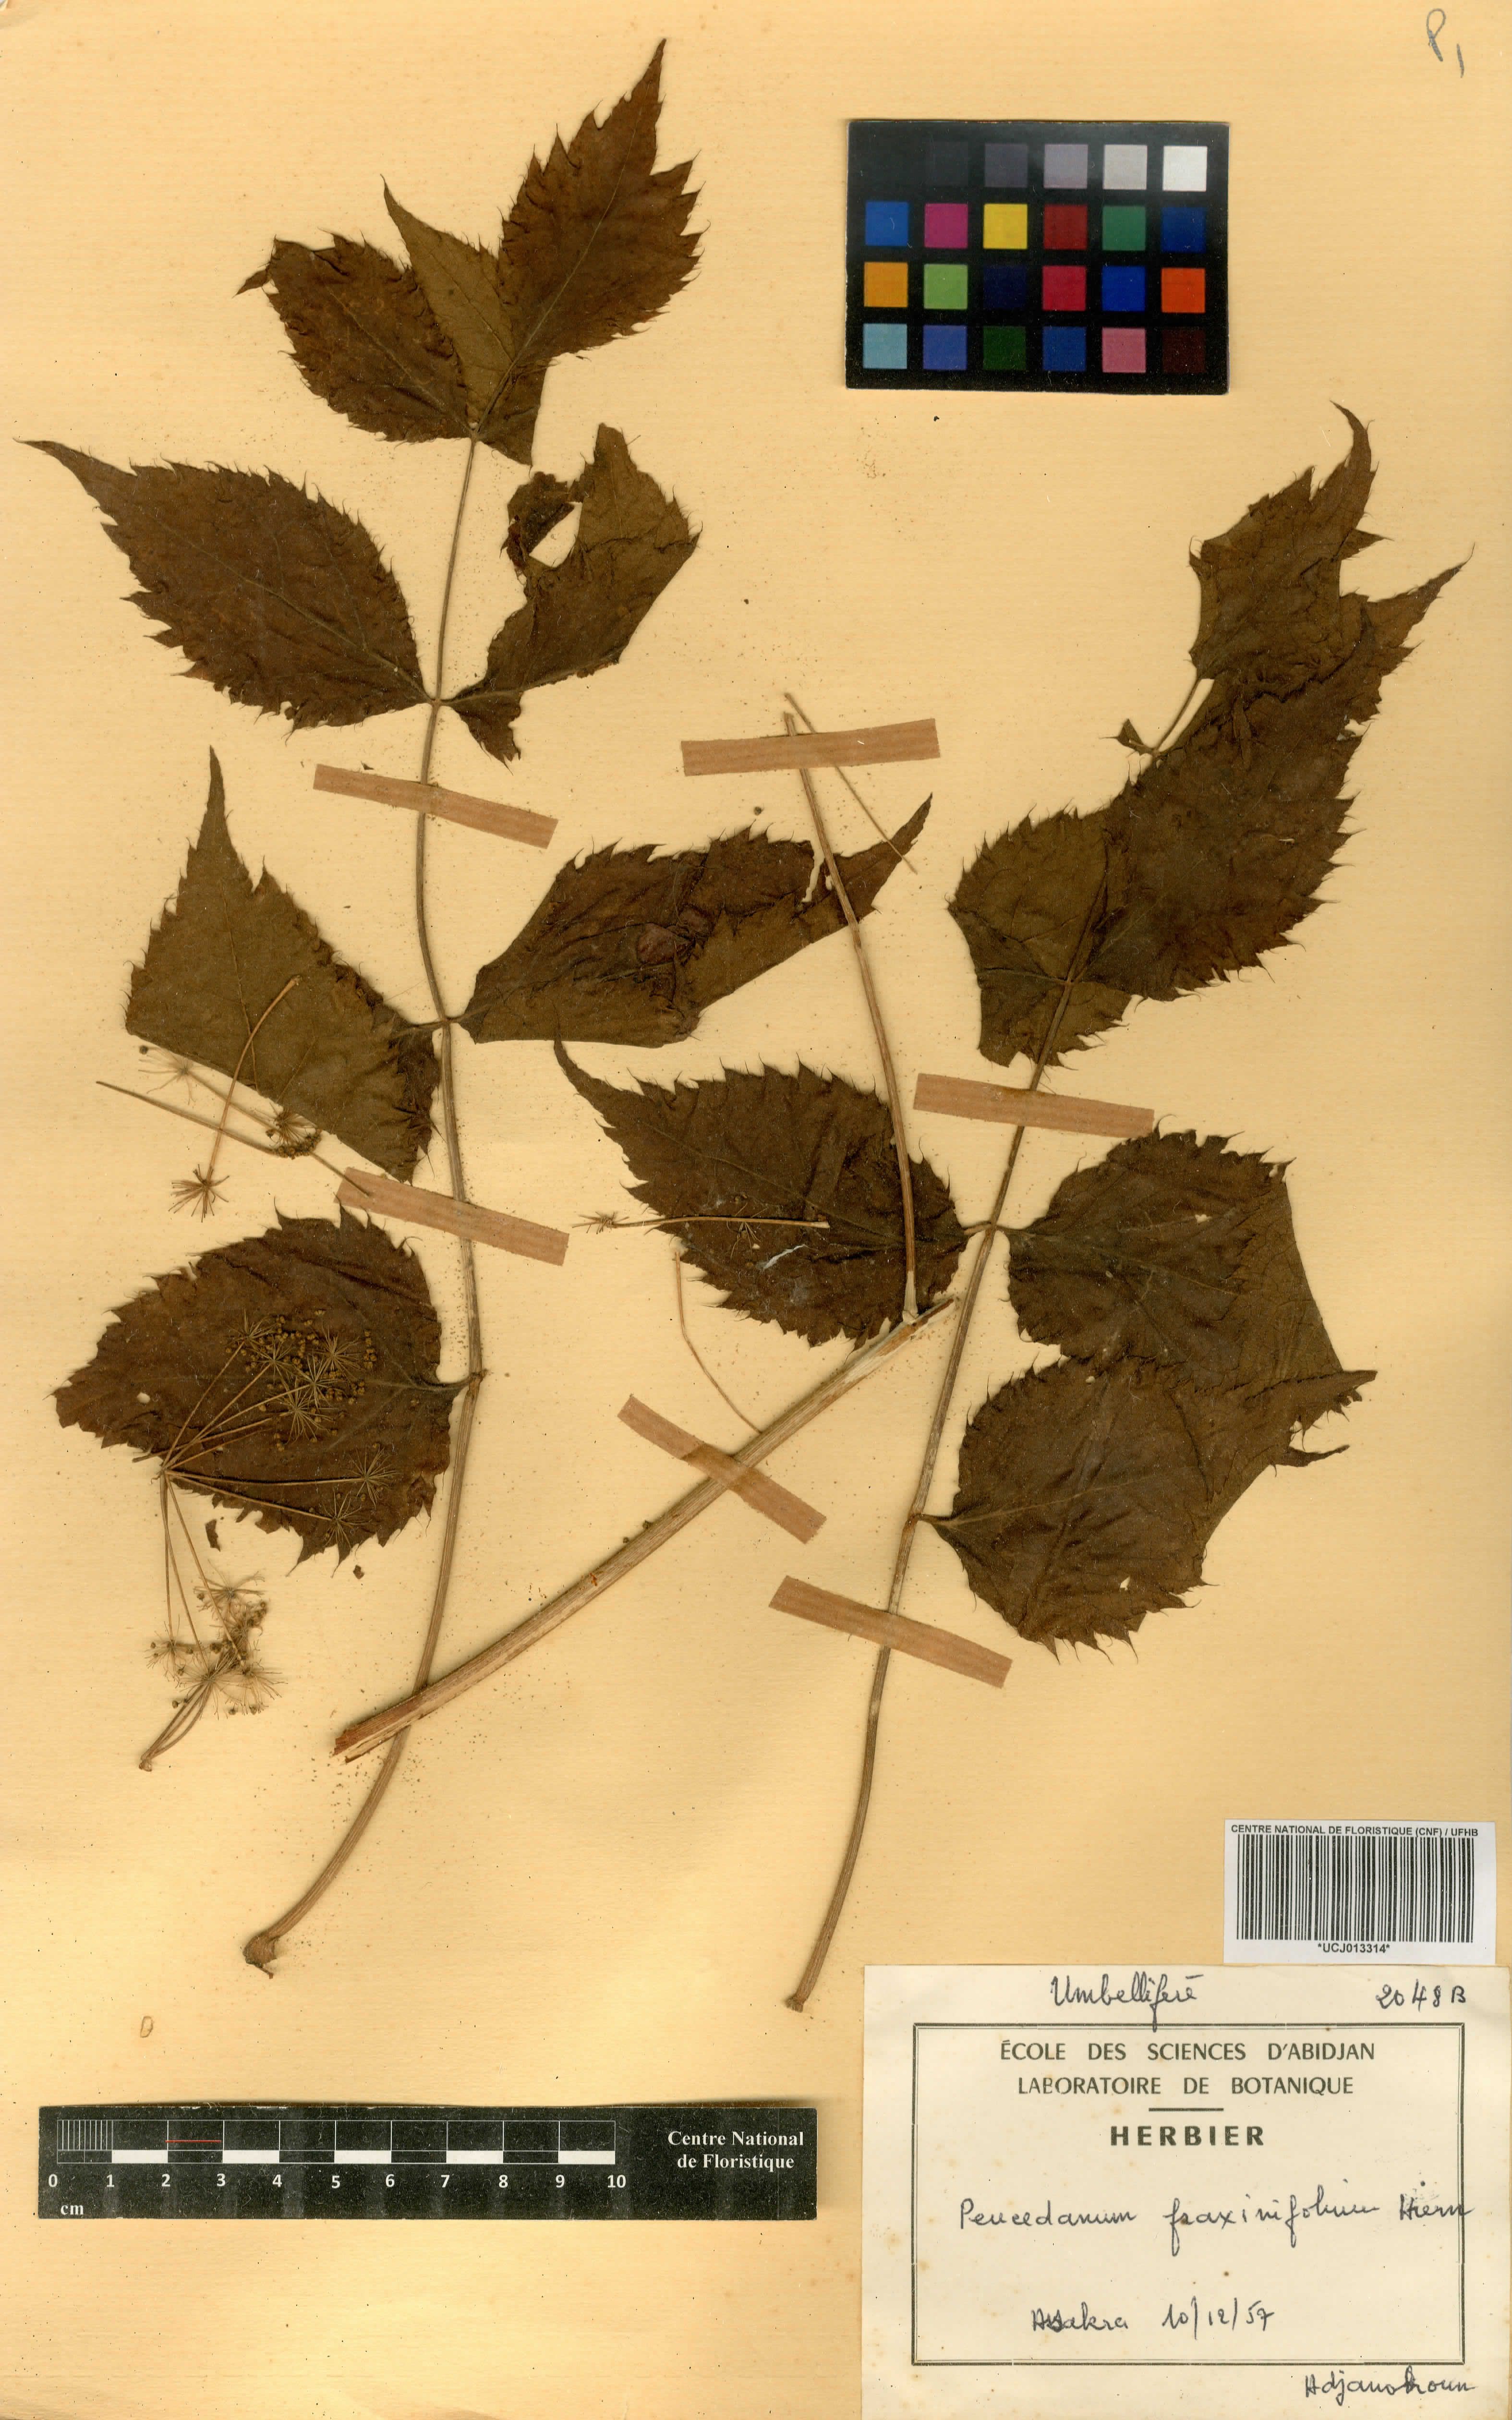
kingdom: Plantae
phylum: Tracheophyta
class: Magnoliopsida
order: Apiales
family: Apiaceae
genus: Steganotaenia
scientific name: Steganotaenia araliacea
